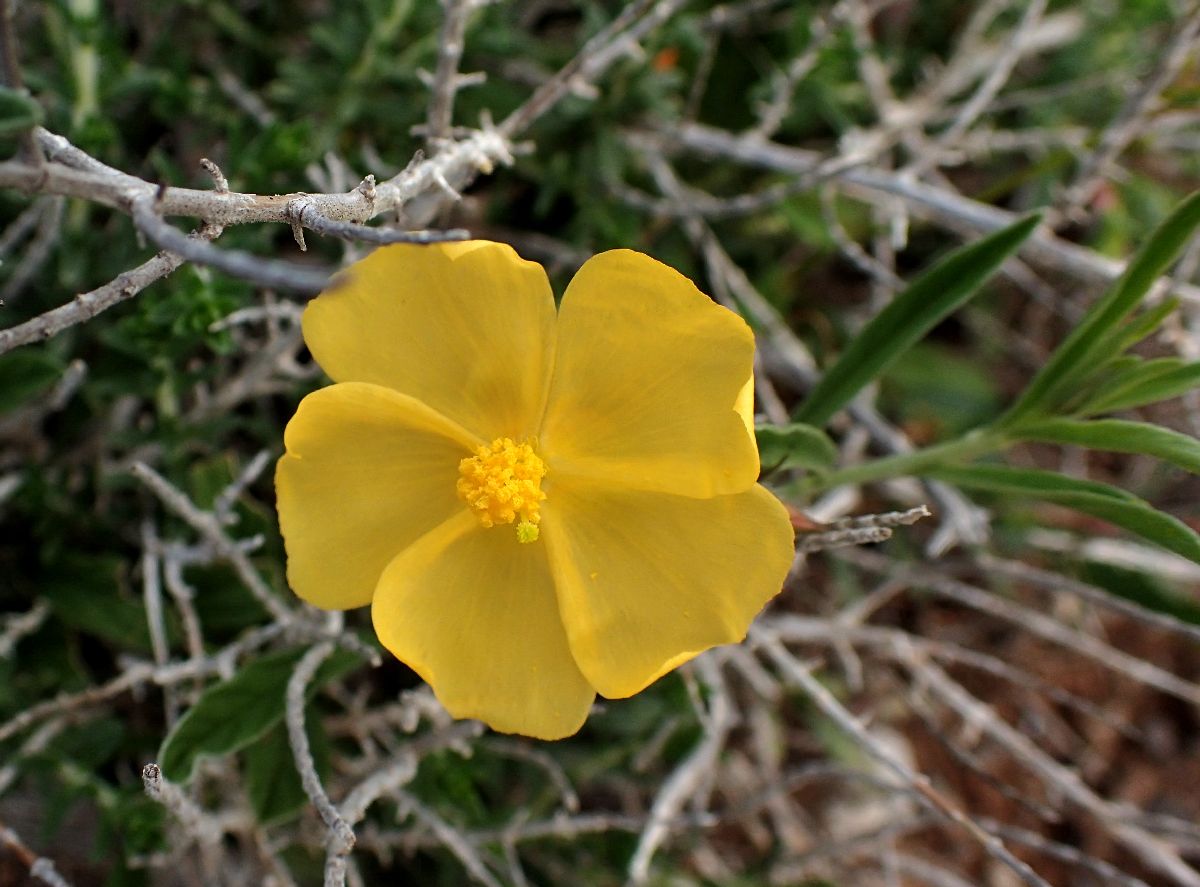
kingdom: Plantae
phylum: Tracheophyta
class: Magnoliopsida
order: Malvales
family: Cistaceae
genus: Fumana
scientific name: Fumana arabica
